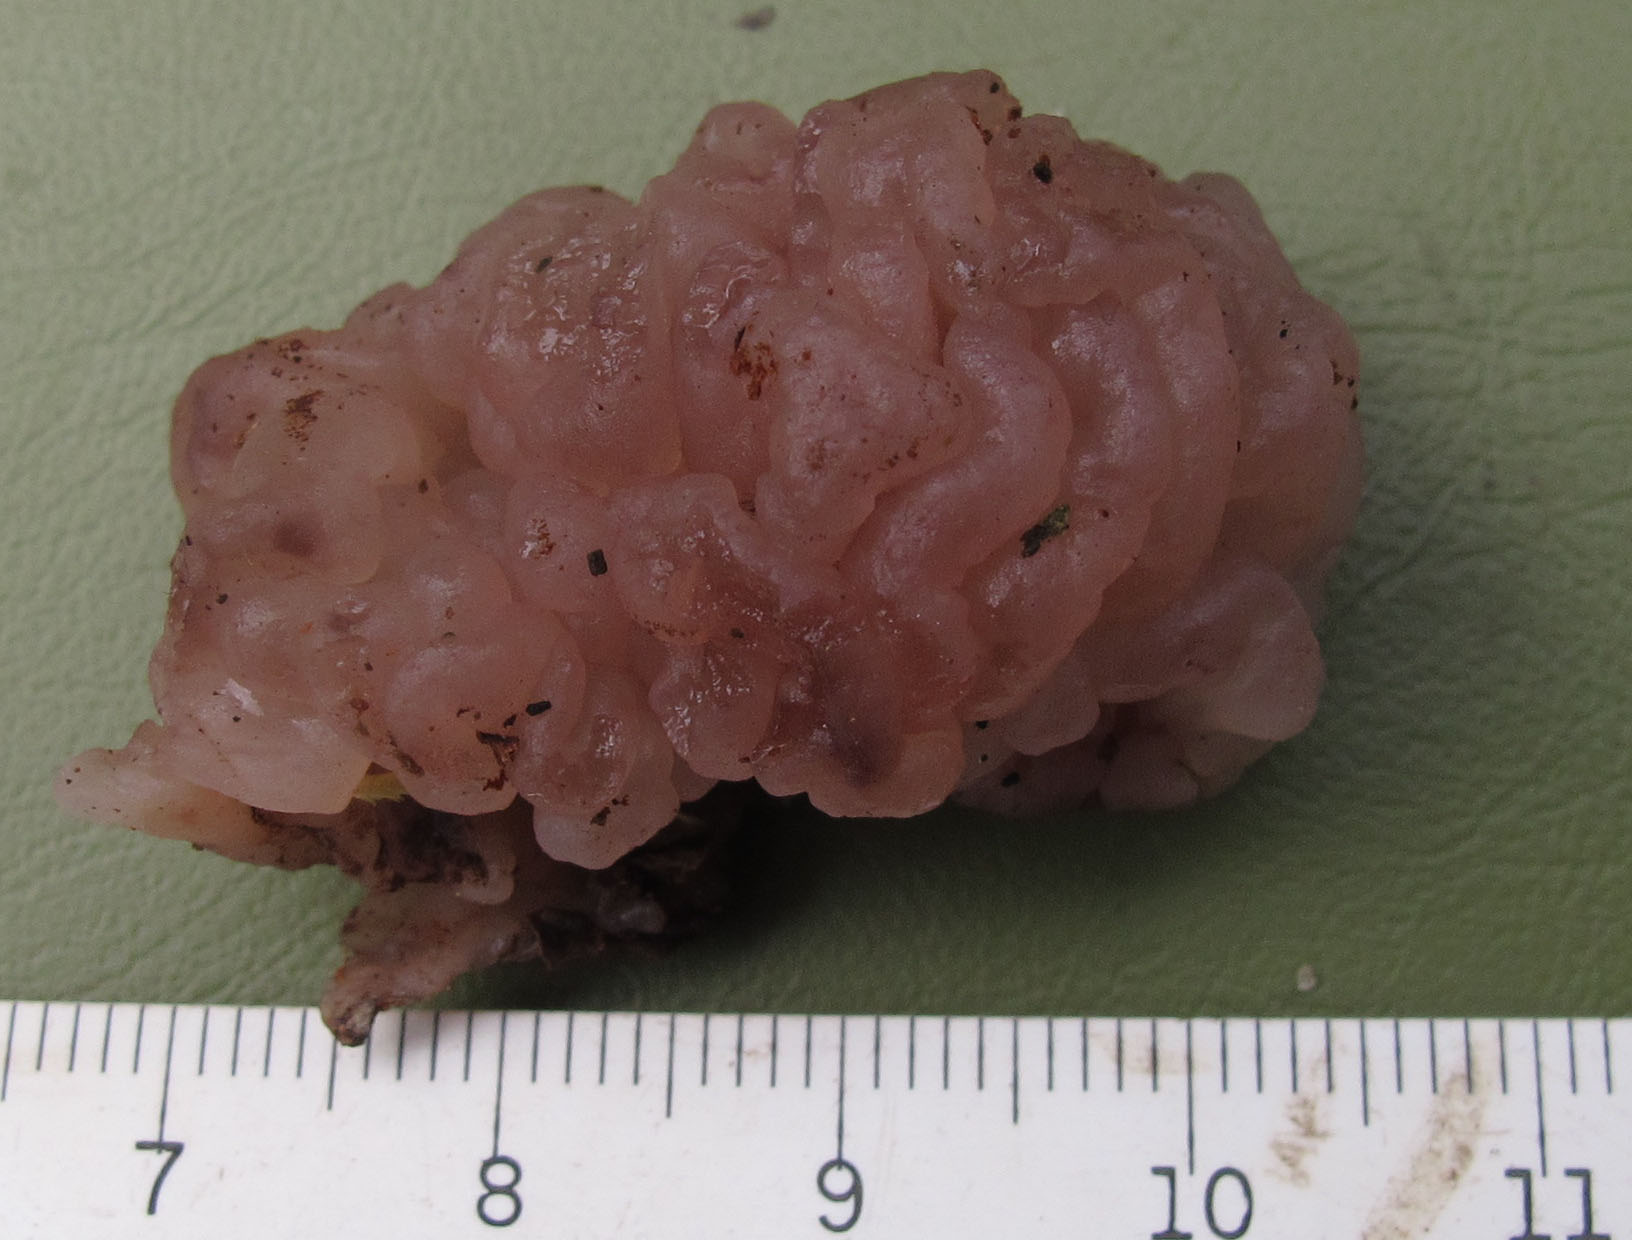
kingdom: Fungi
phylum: Ascomycota
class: Leotiomycetes
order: Helotiales
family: Gelatinodiscaceae
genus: Ascotremella
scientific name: Ascotremella faginea
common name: hjerne-bævreskive
